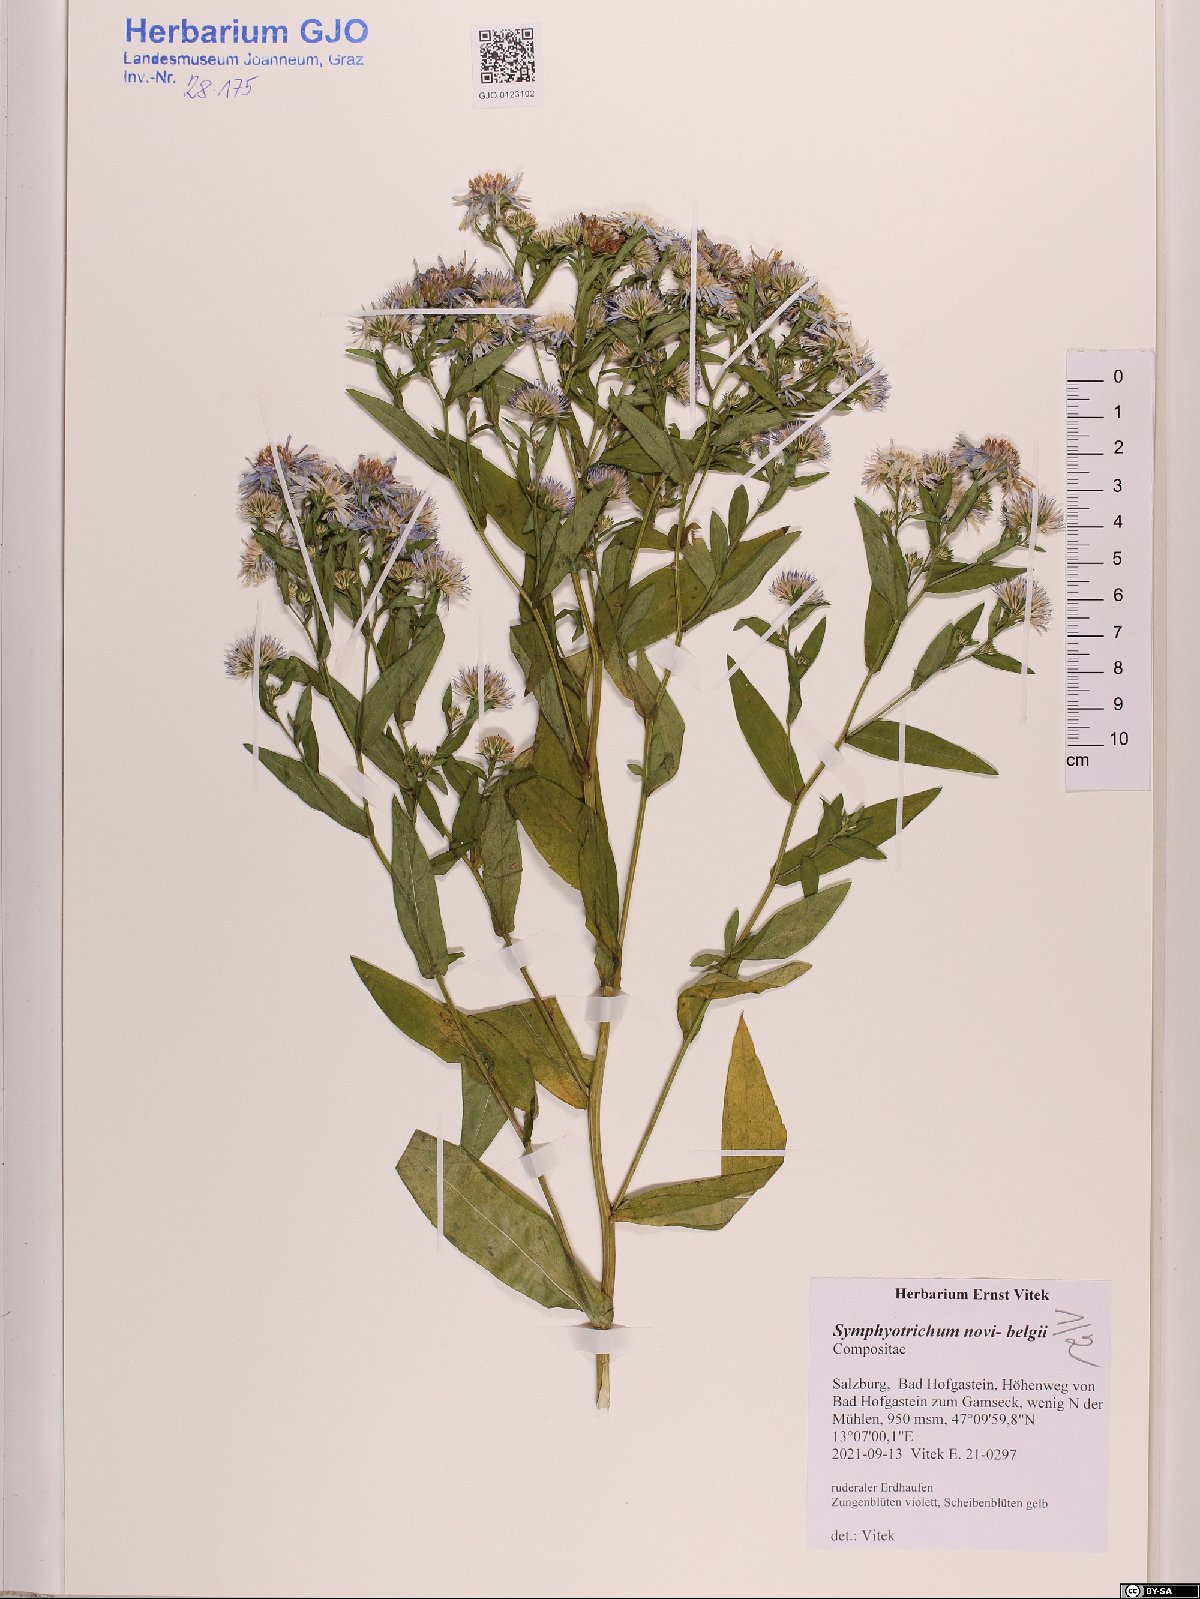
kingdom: Plantae
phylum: Tracheophyta
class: Magnoliopsida
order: Asterales
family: Asteraceae
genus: Symphyotrichum
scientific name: Symphyotrichum novi-belgii
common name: Michaelmas daisy
